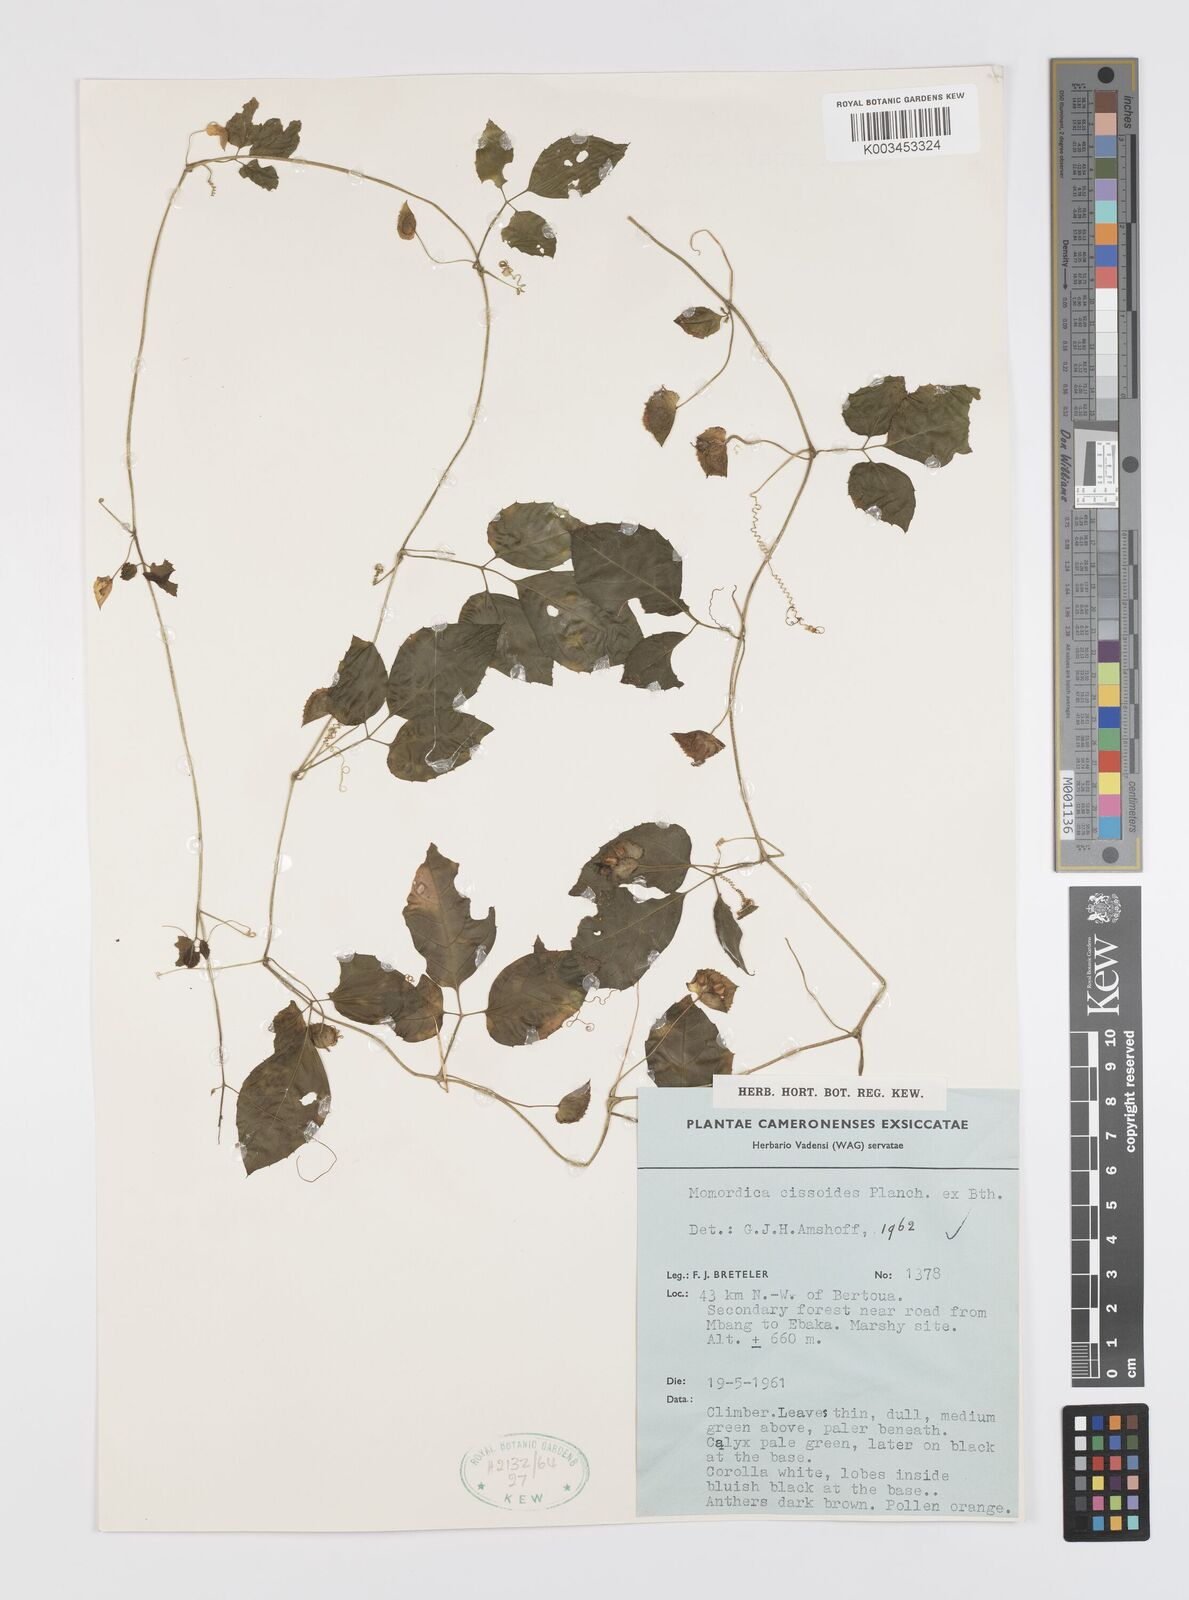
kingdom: Plantae
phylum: Tracheophyta
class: Magnoliopsida
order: Cucurbitales
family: Cucurbitaceae
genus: Momordica
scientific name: Momordica cissoides
